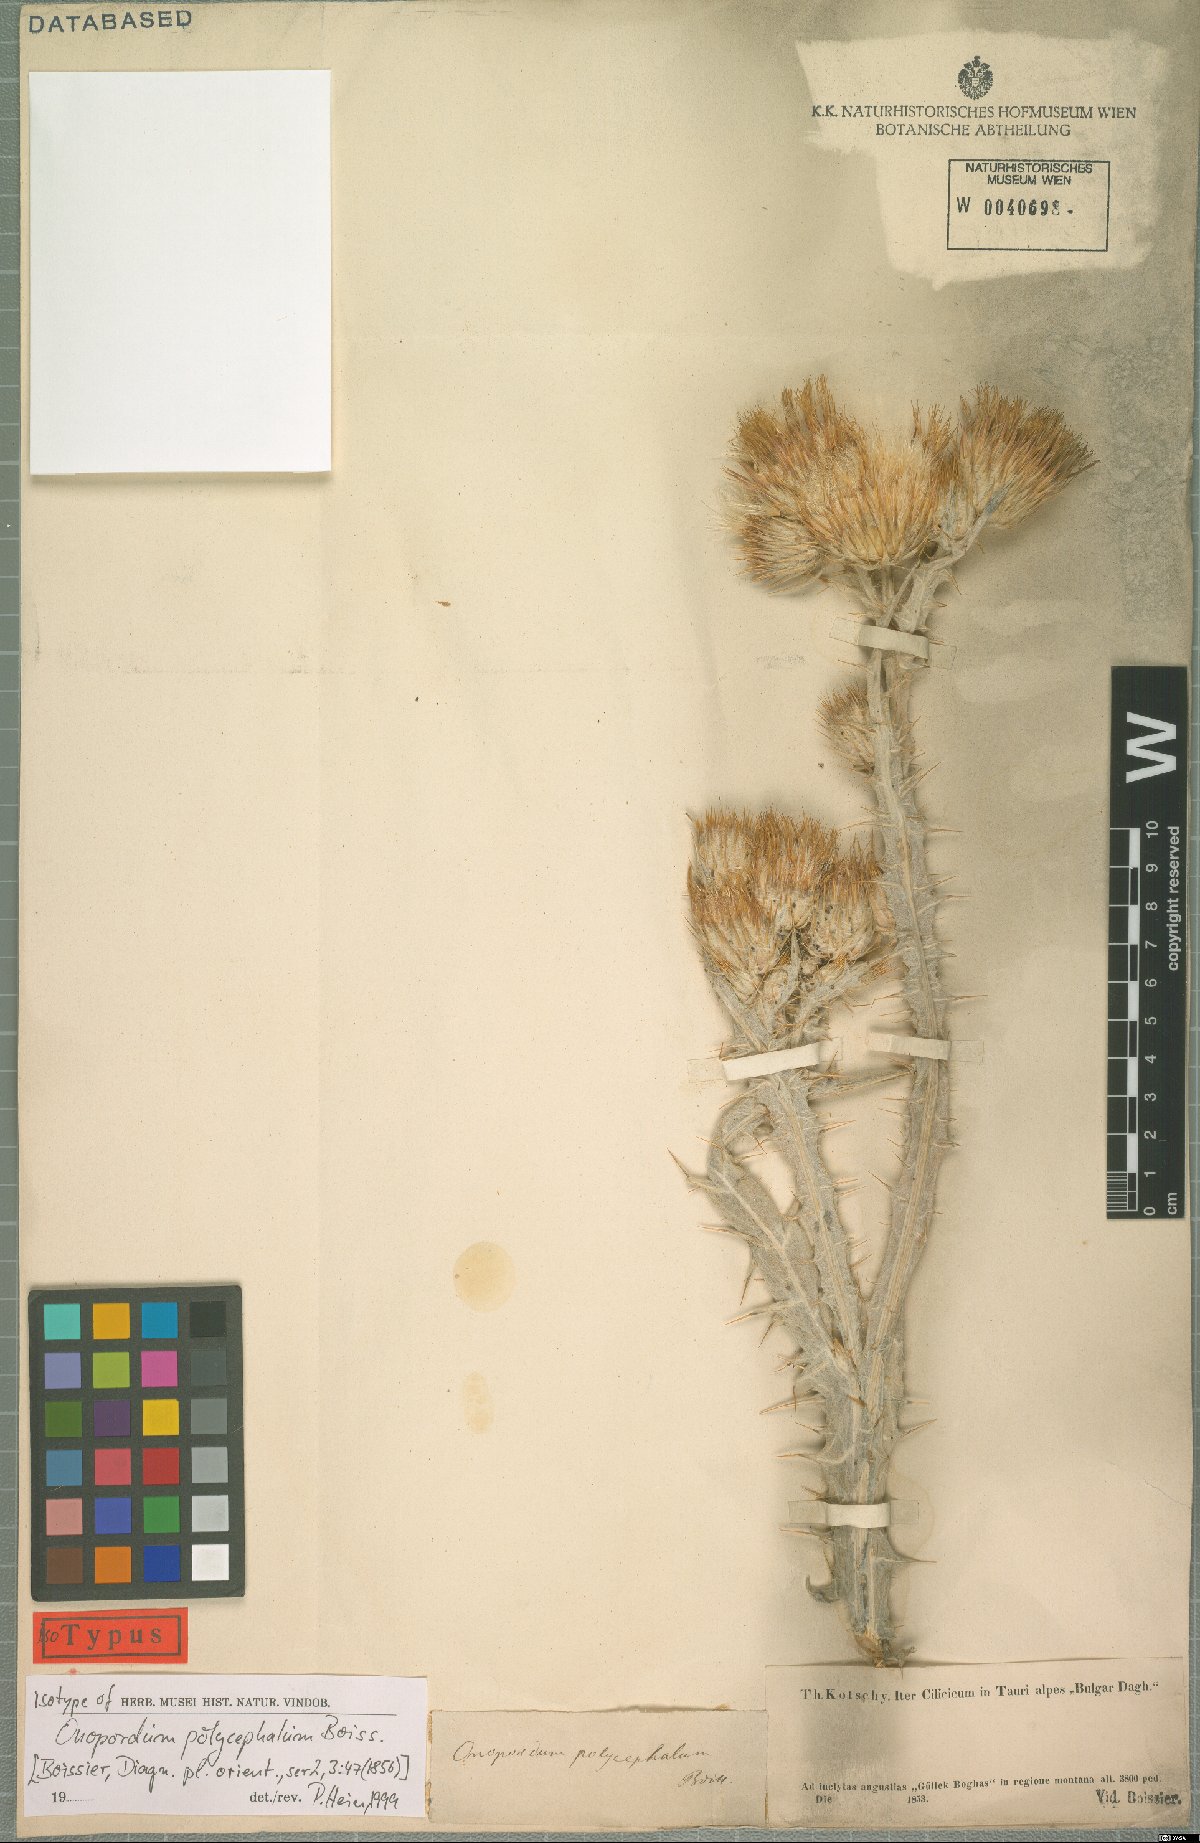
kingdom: Plantae
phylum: Tracheophyta
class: Magnoliopsida
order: Asterales
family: Asteraceae
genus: Onopordum
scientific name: Onopordum polycephalum
